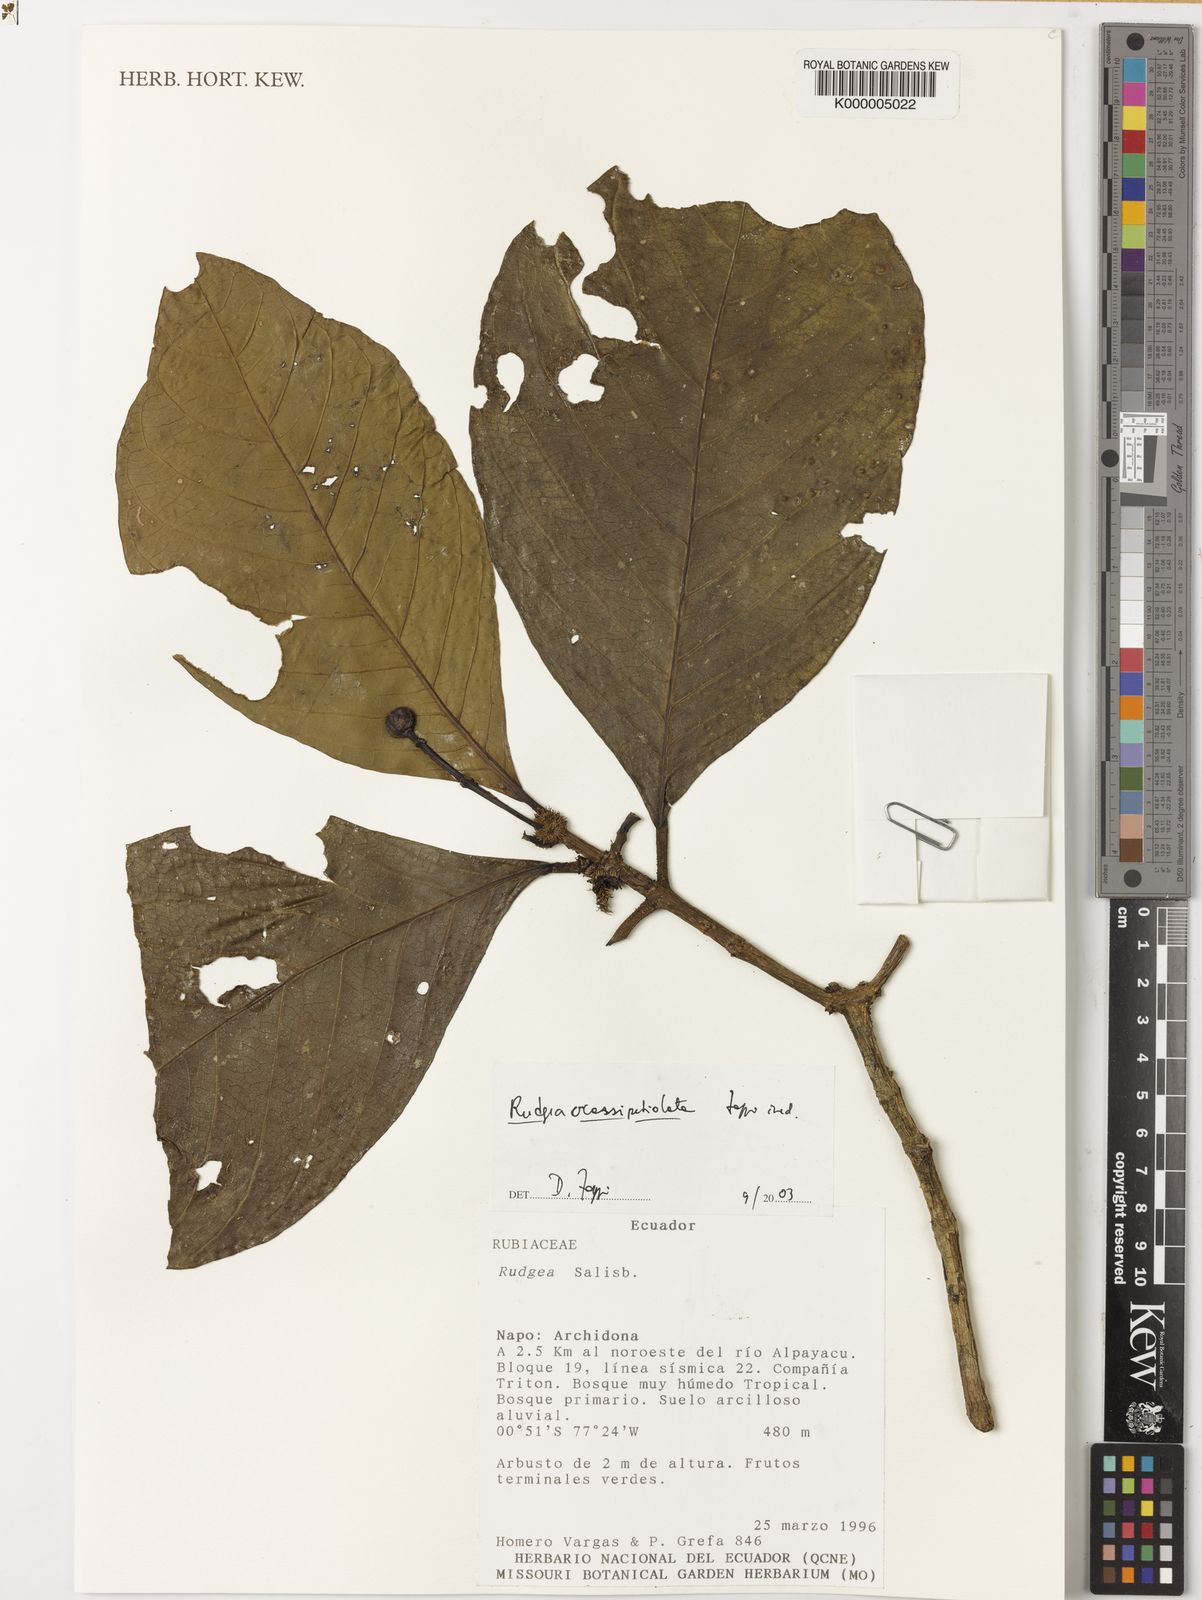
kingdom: Plantae
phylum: Tracheophyta
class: Magnoliopsida
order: Gentianales
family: Rubiaceae
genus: Rudgea
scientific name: Rudgea crassipetiolata
